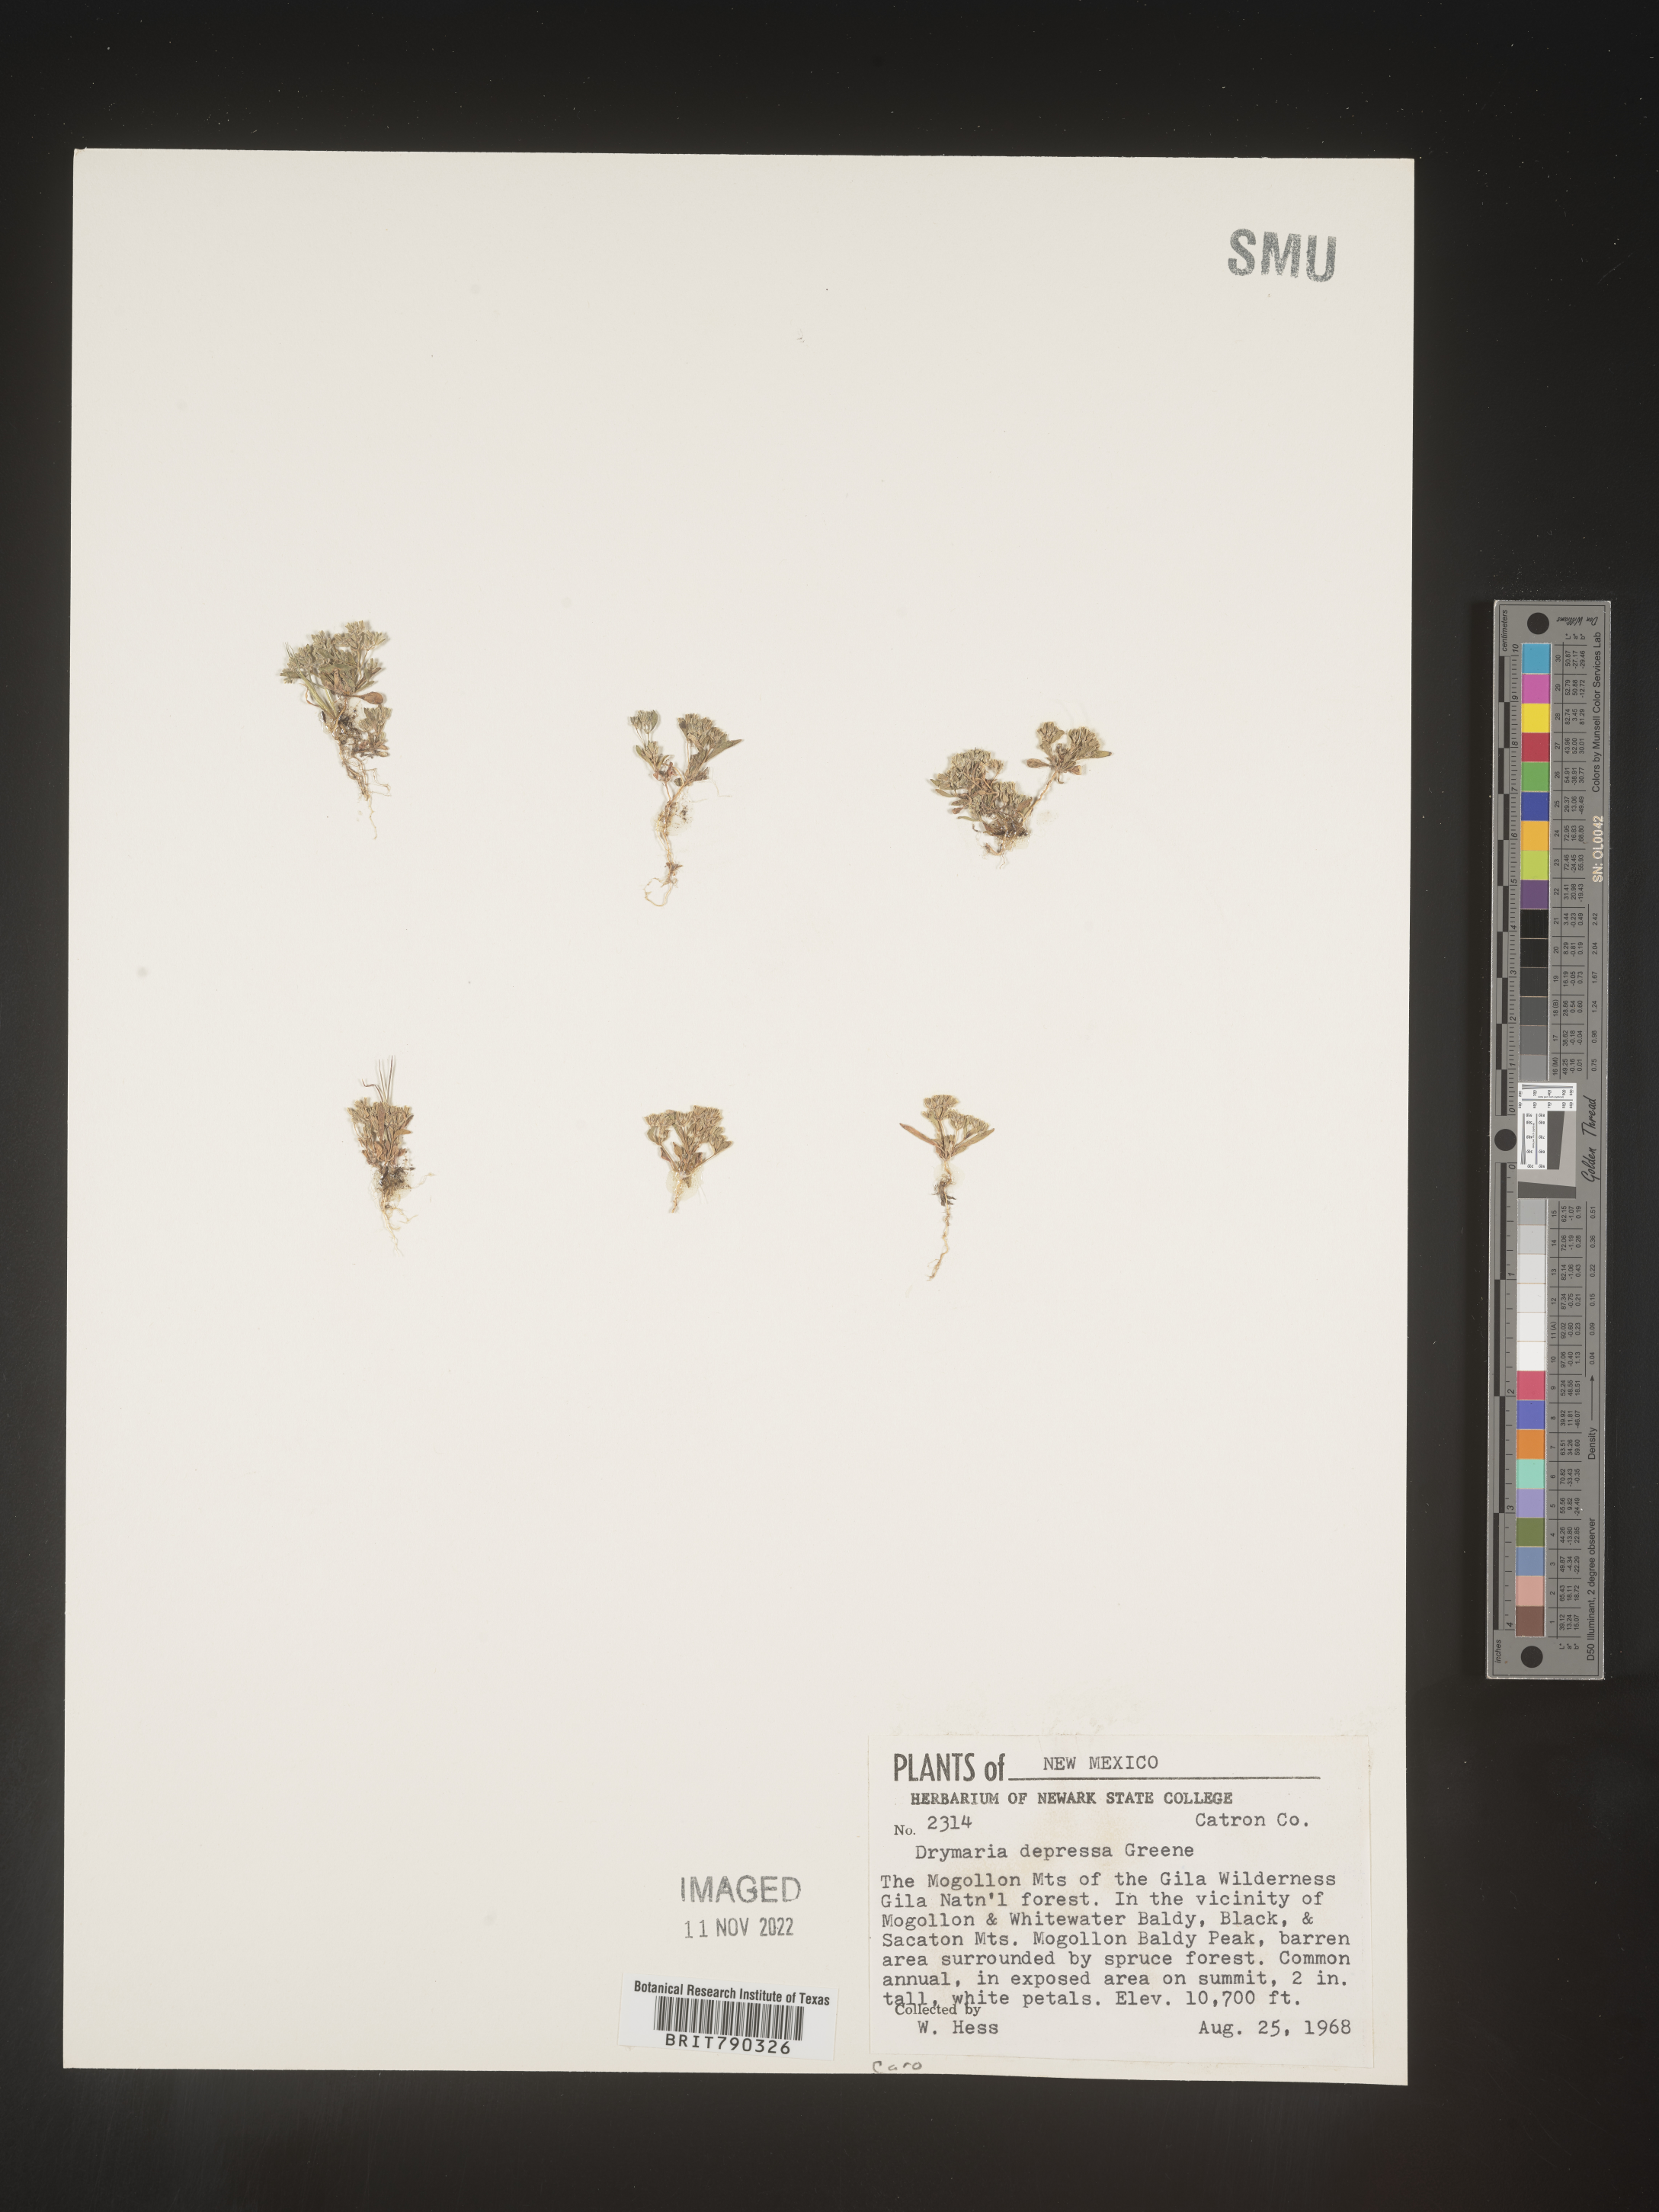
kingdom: Plantae
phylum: Tracheophyta
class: Magnoliopsida
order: Caryophyllales
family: Caryophyllaceae
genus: Drymaria
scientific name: Drymaria
